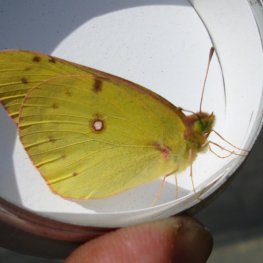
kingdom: Animalia
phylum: Arthropoda
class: Insecta
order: Lepidoptera
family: Pieridae
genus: Colias
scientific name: Colias philodice
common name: Clouded Sulphur
